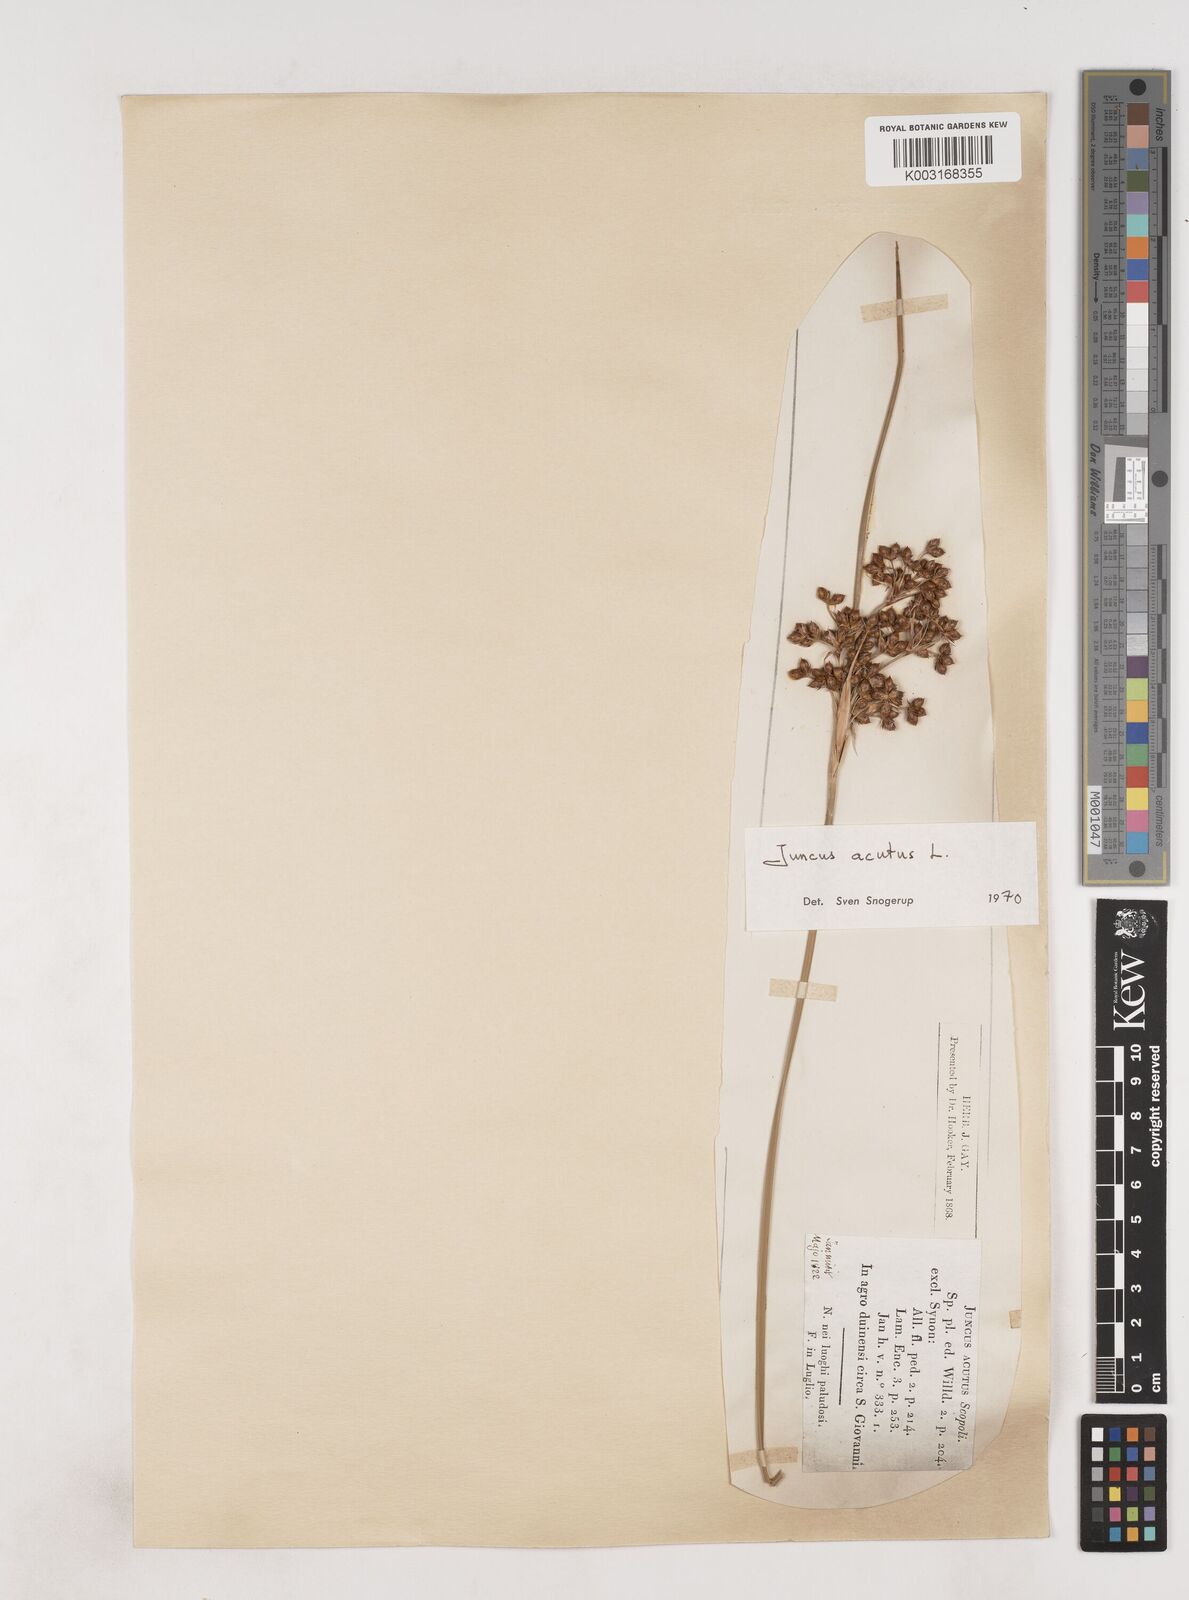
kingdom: Plantae
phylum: Tracheophyta
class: Liliopsida
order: Poales
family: Juncaceae
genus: Juncus
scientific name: Juncus acutus
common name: Sharp rush
